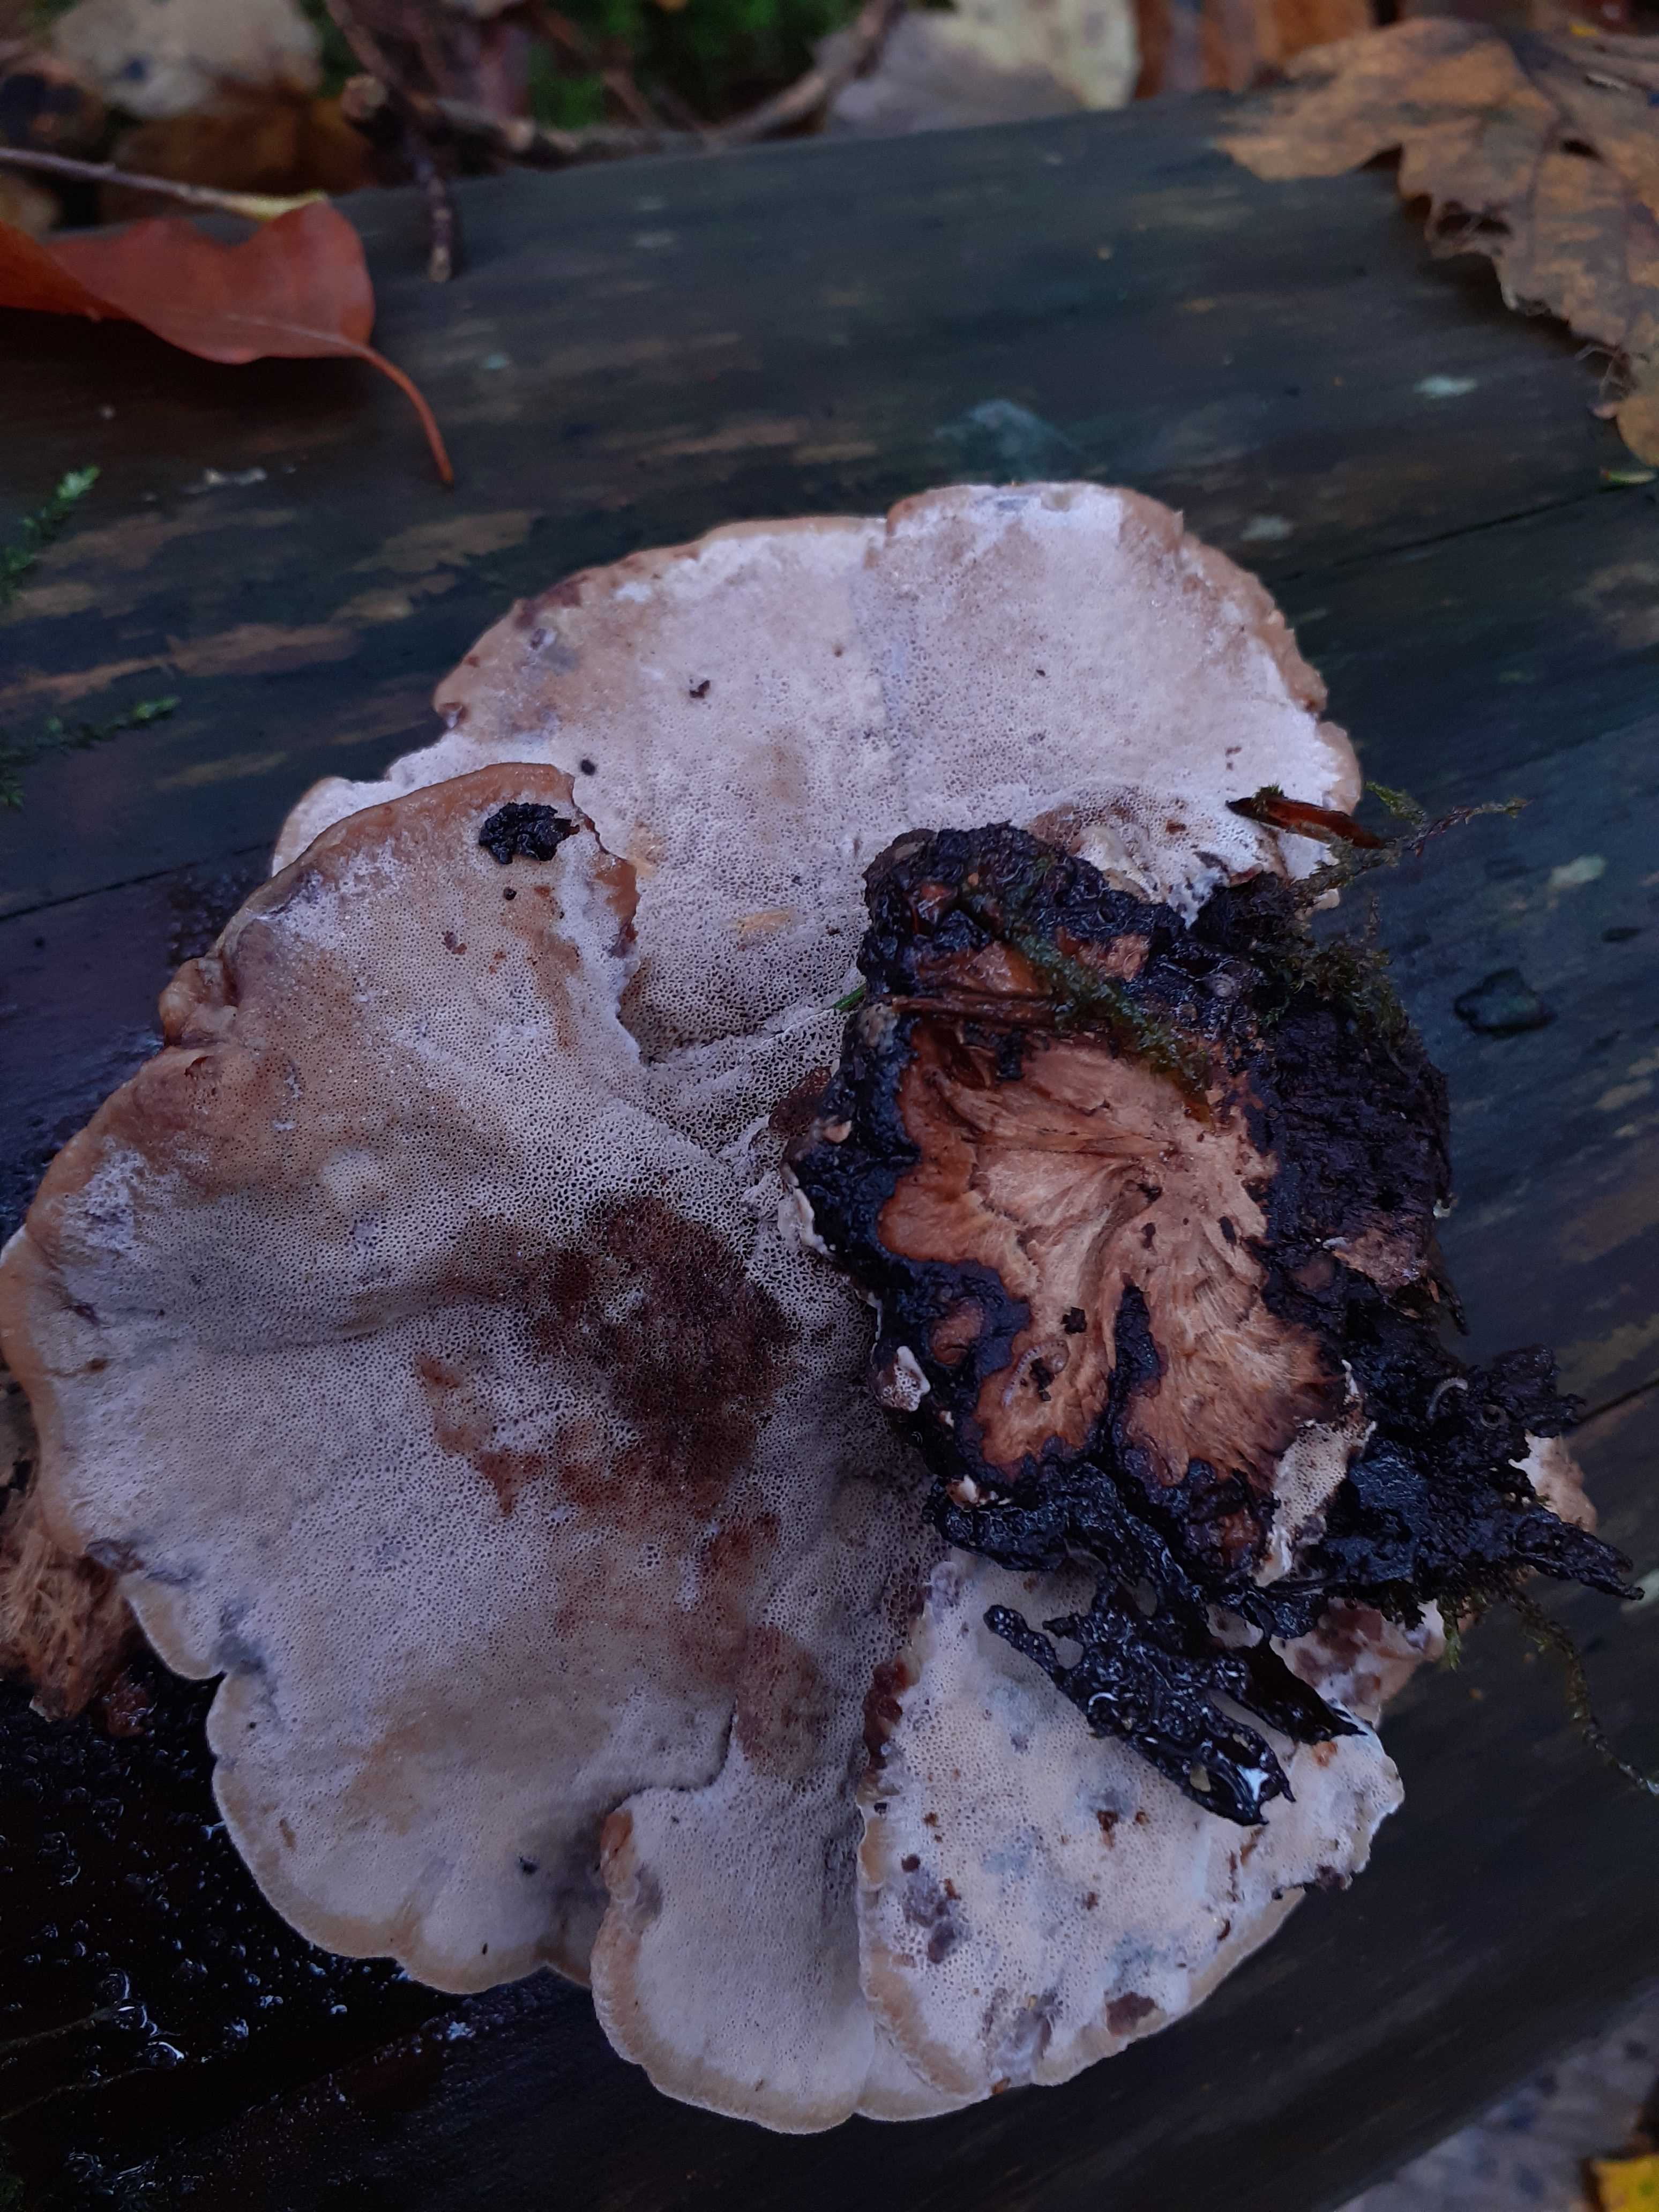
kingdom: Fungi
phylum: Basidiomycota
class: Agaricomycetes
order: Polyporales
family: Ischnodermataceae
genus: Ischnoderma
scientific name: Ischnoderma benzoinum
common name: gran-tjæreporesvamp
